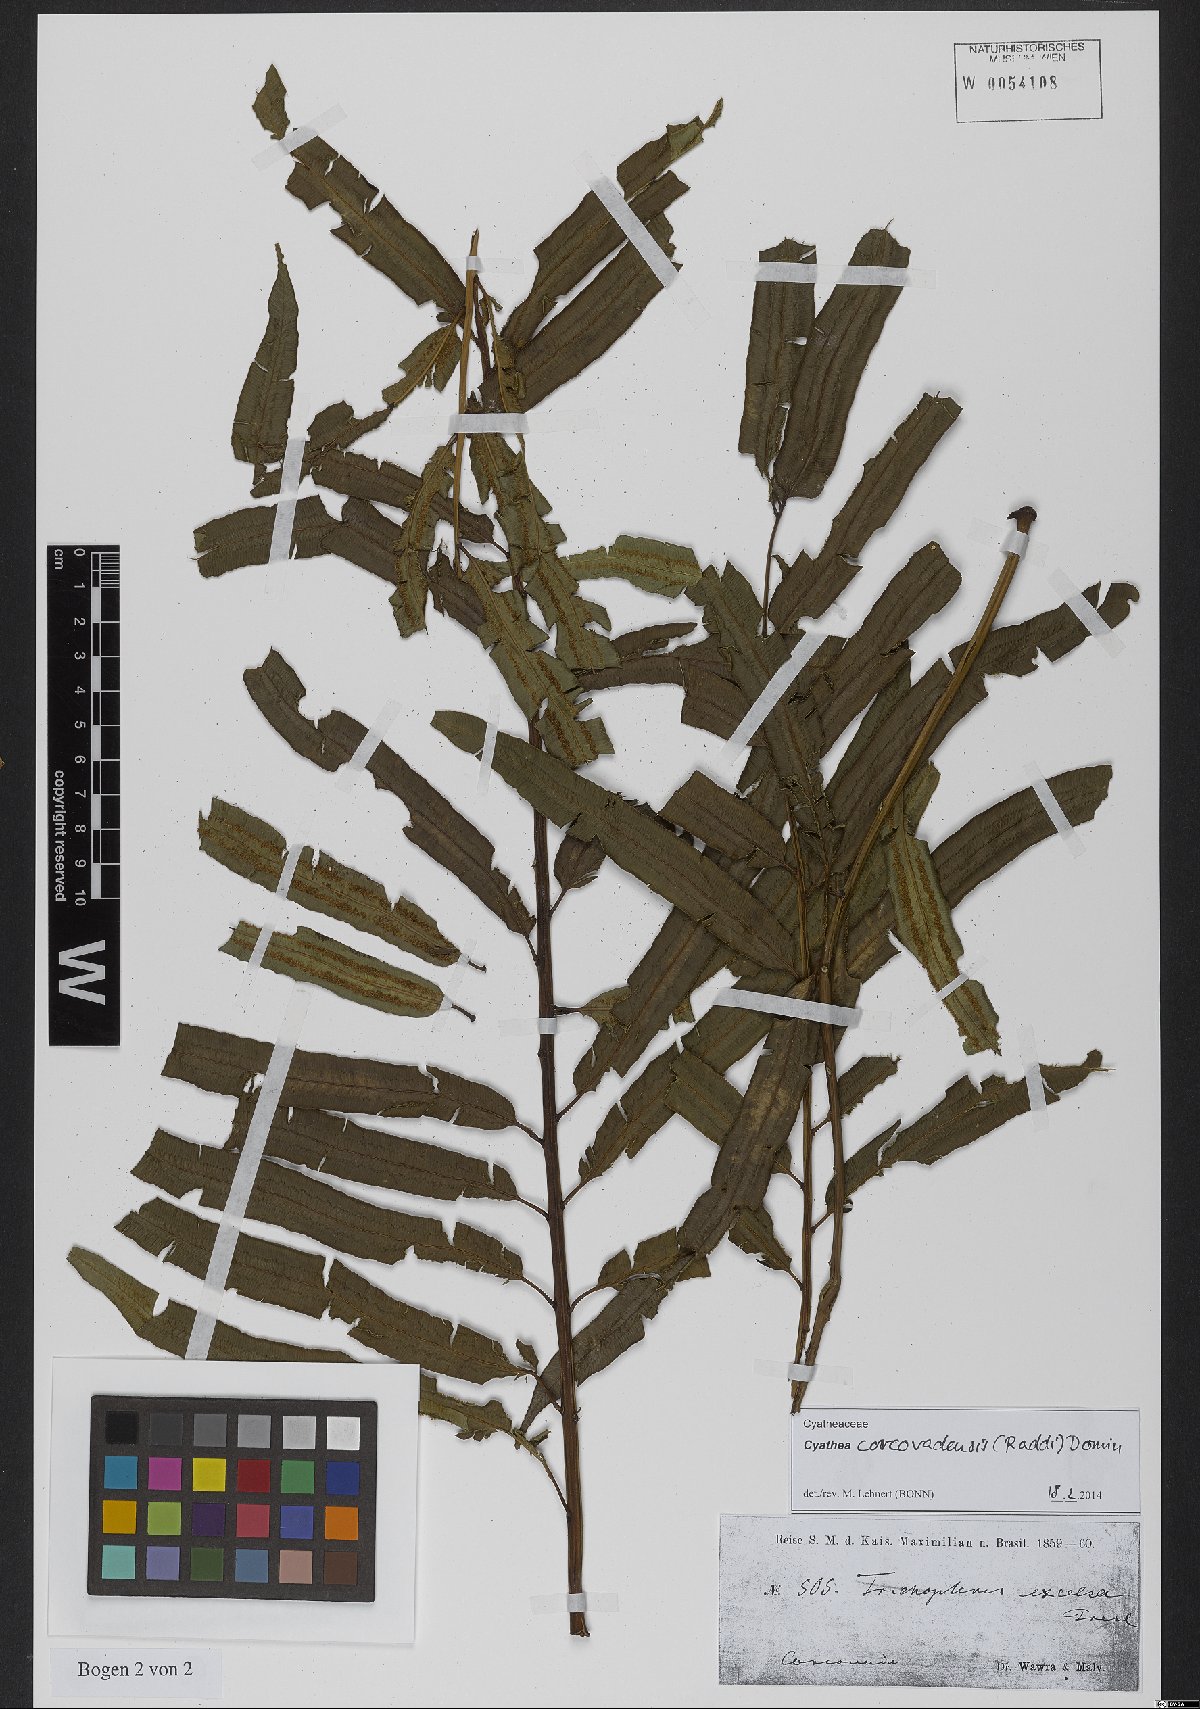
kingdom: Plantae
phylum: Tracheophyta
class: Polypodiopsida
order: Cyatheales
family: Cyatheaceae
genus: Cyathea
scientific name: Cyathea corcovadensis
